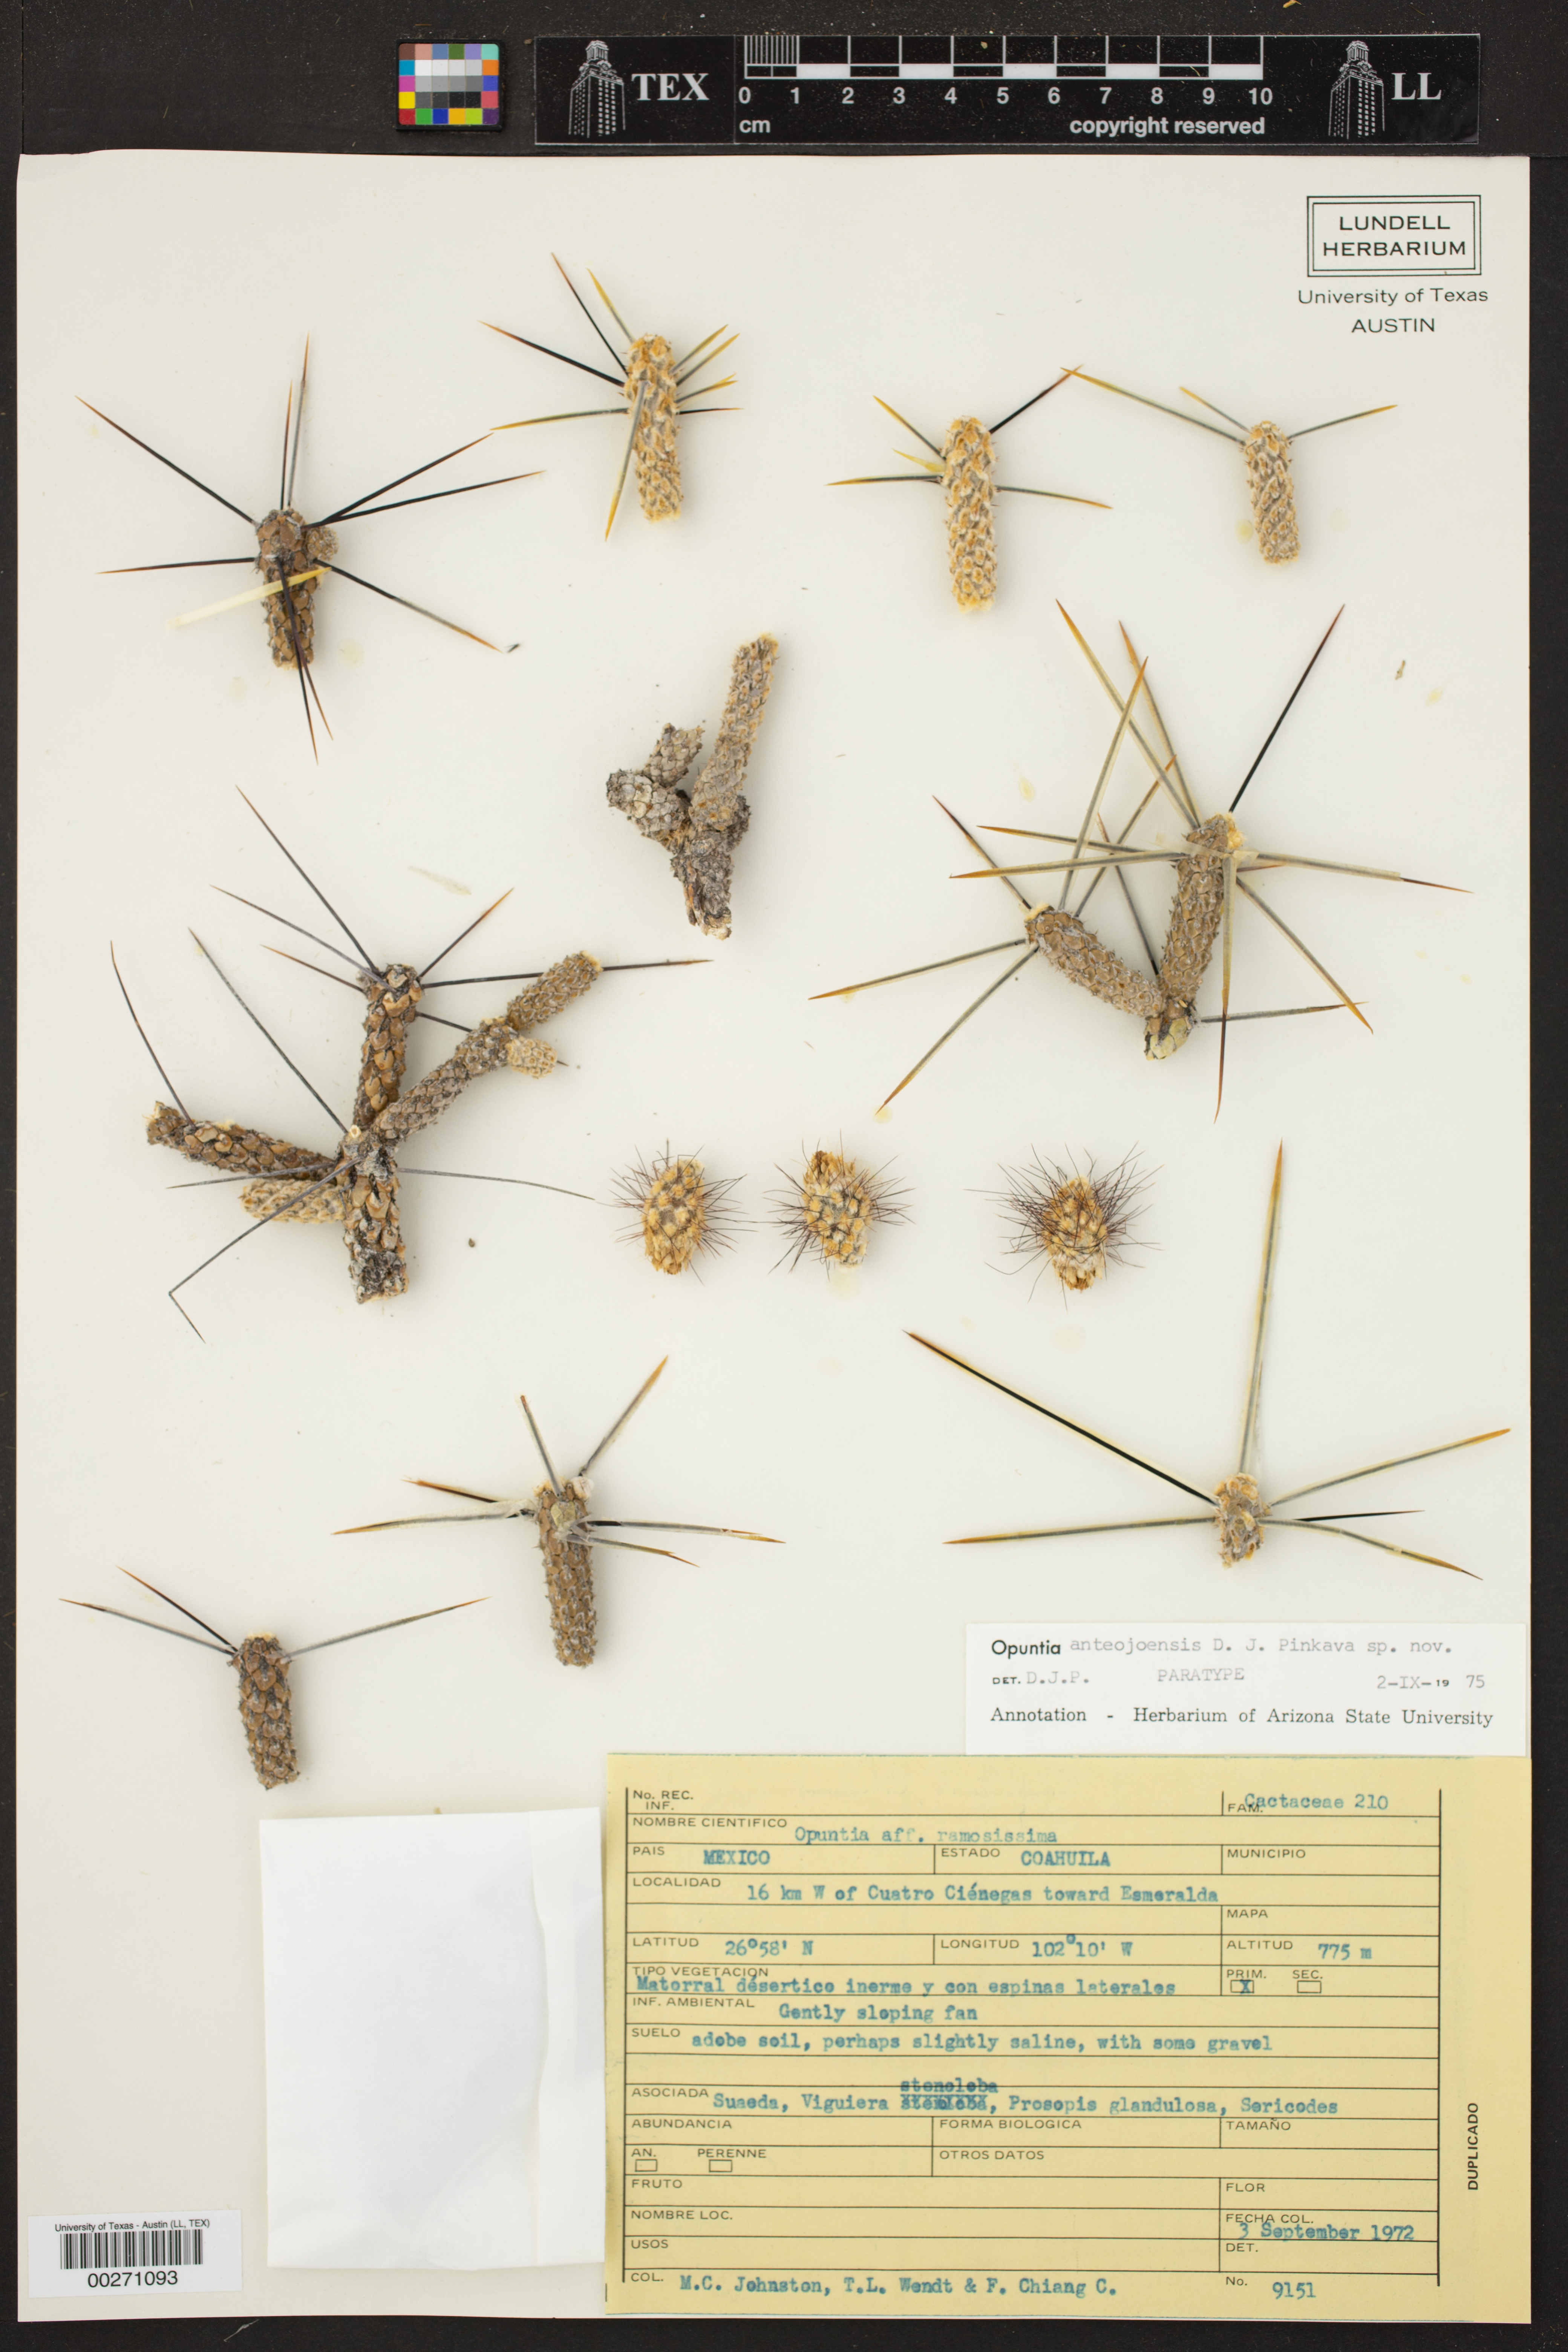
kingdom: Plantae
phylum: Tracheophyta
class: Magnoliopsida
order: Caryophyllales
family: Cactaceae
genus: Cylindropuntia
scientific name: Cylindropuntia anteojoensis
